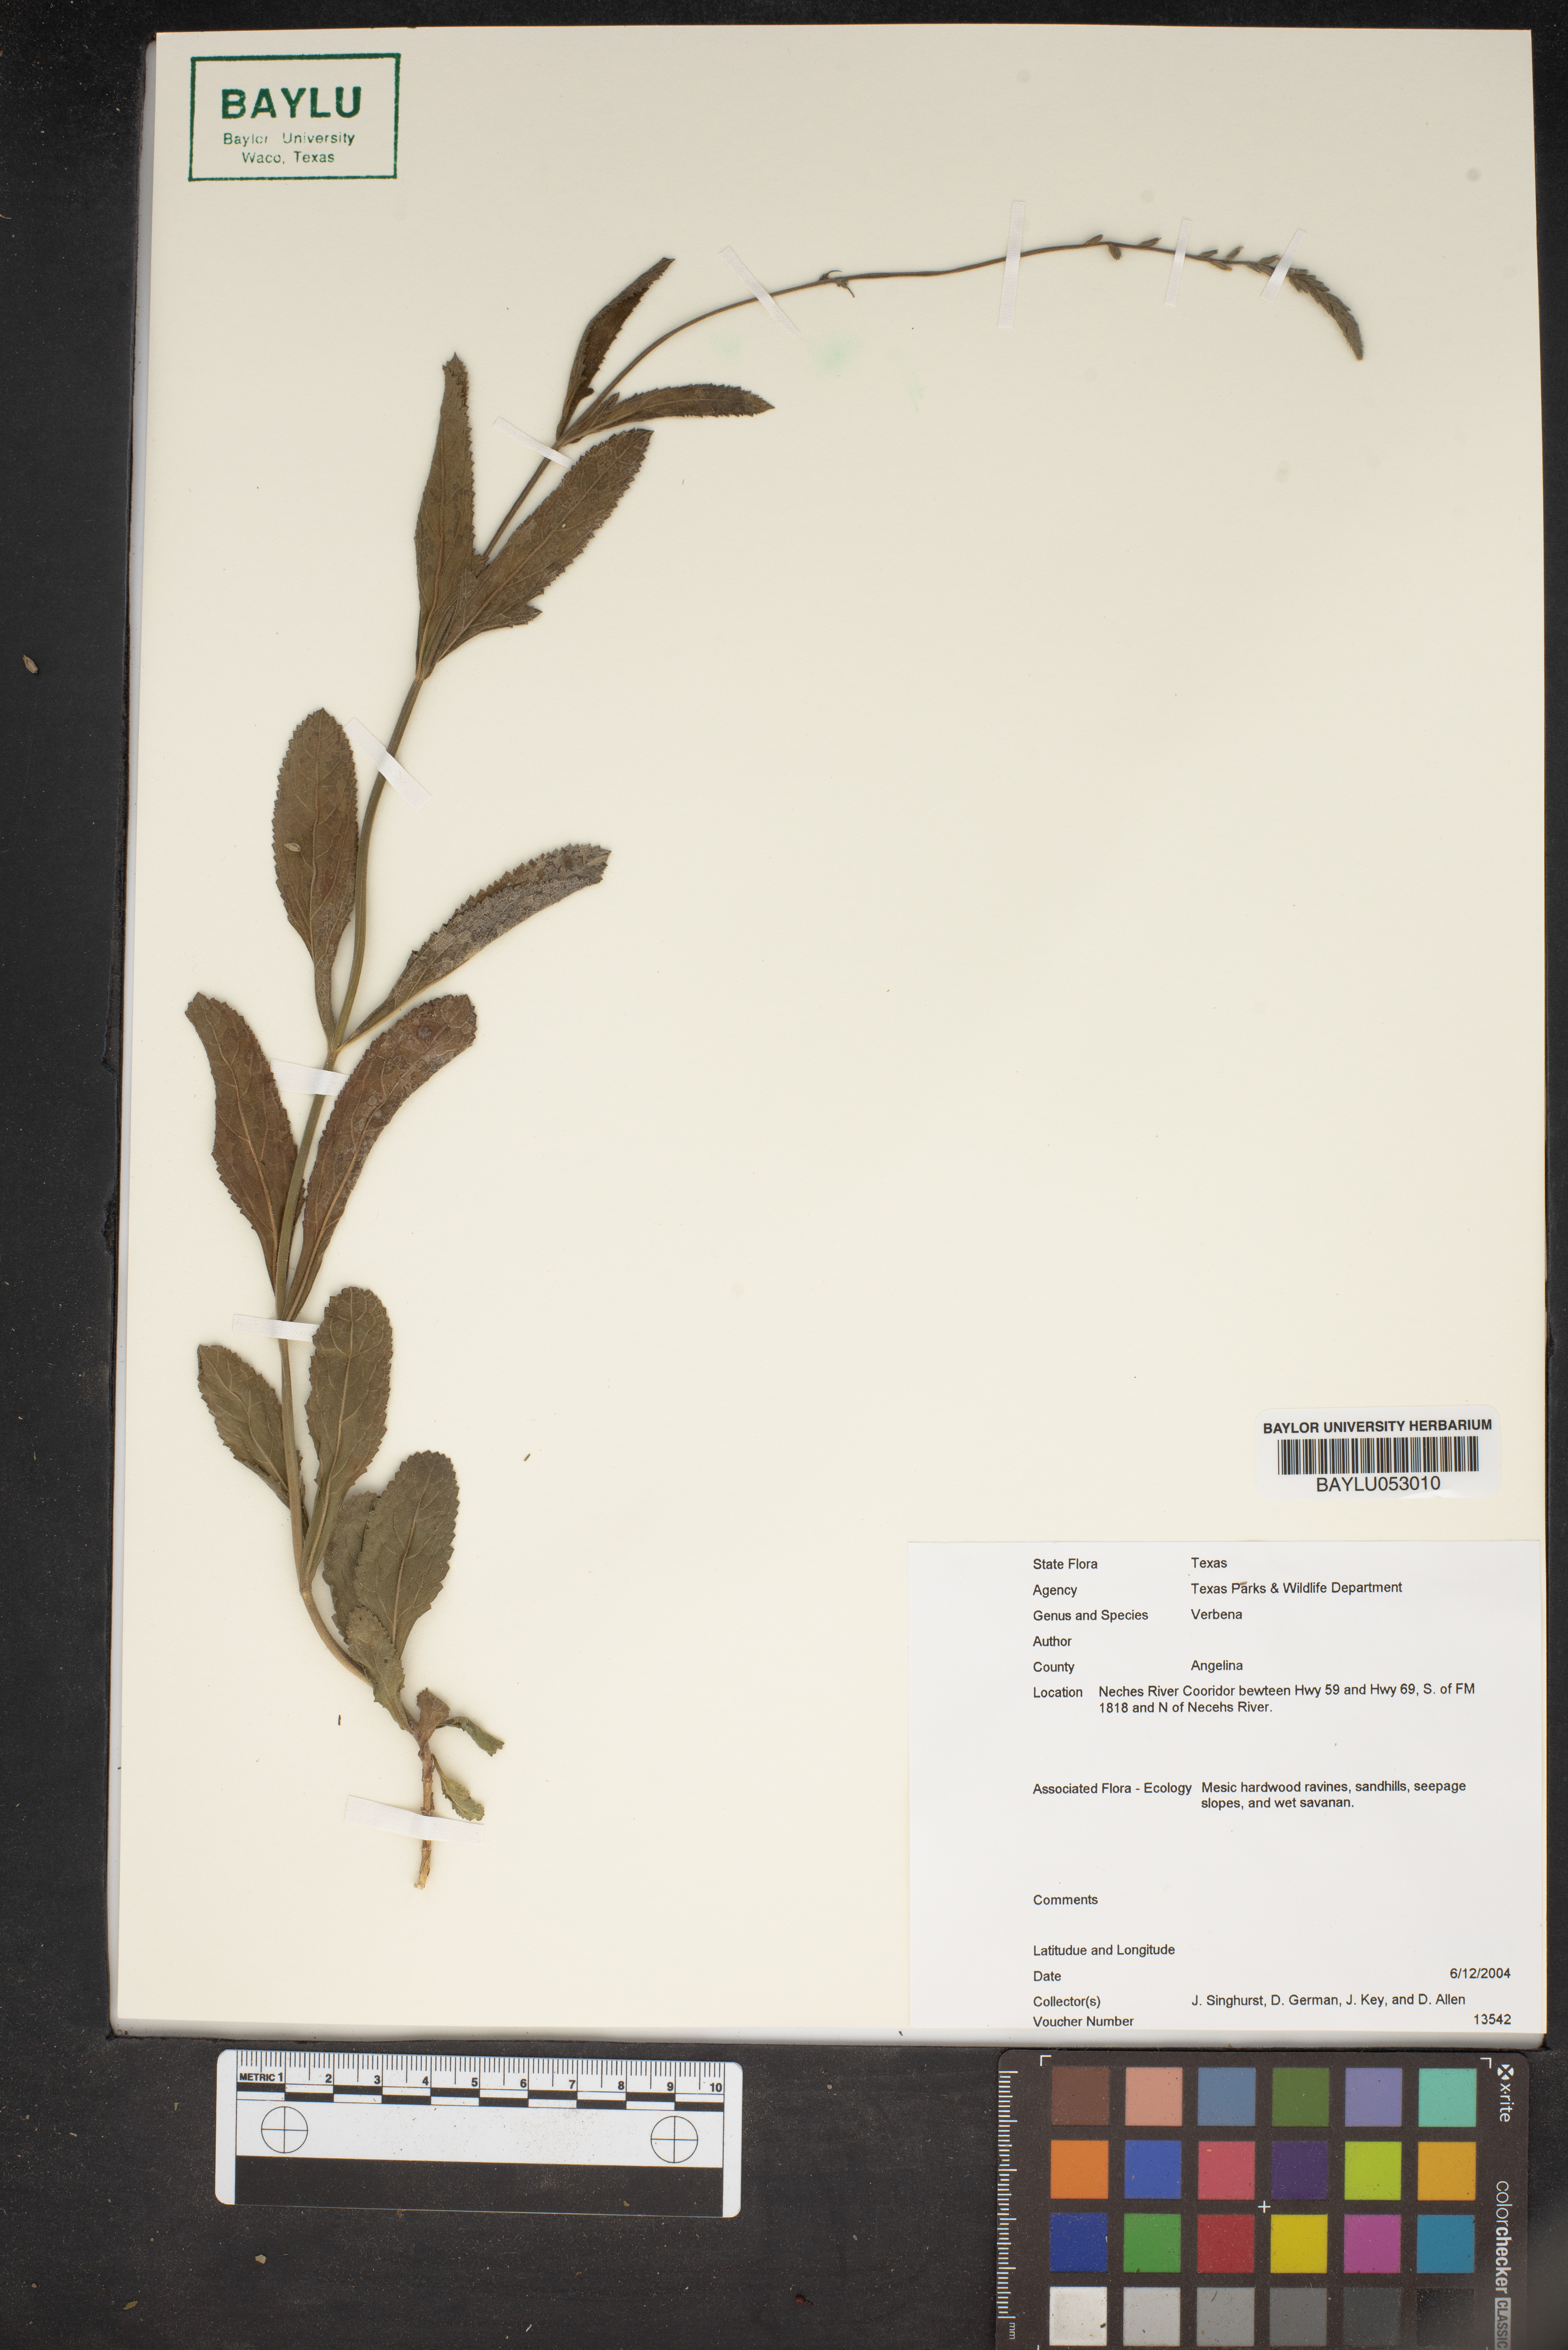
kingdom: Plantae
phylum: Tracheophyta
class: Magnoliopsida
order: Lamiales
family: Verbenaceae
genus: Verbena
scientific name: Verbena
